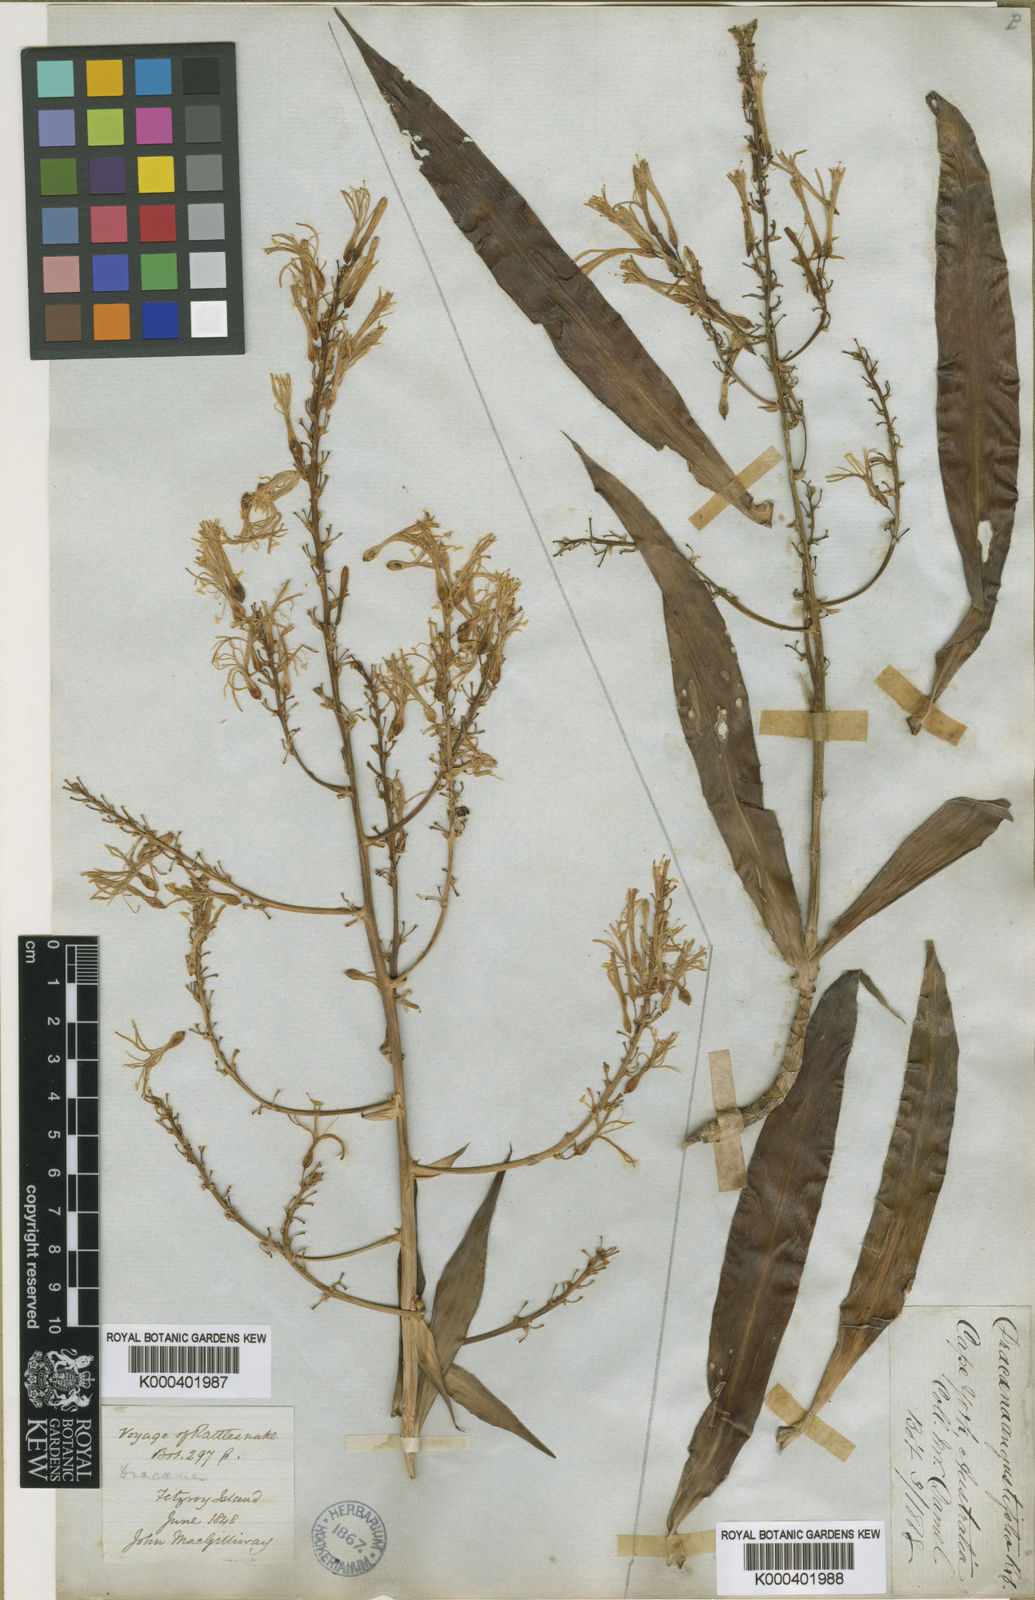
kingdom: Plantae
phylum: Tracheophyta
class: Liliopsida
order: Asparagales
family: Asparagaceae
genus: Dracaena
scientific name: Dracaena angustifolia
